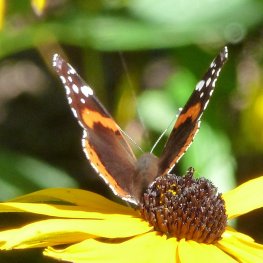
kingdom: Animalia
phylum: Arthropoda
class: Insecta
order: Lepidoptera
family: Nymphalidae
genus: Vanessa
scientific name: Vanessa atalanta
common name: Red Admiral
